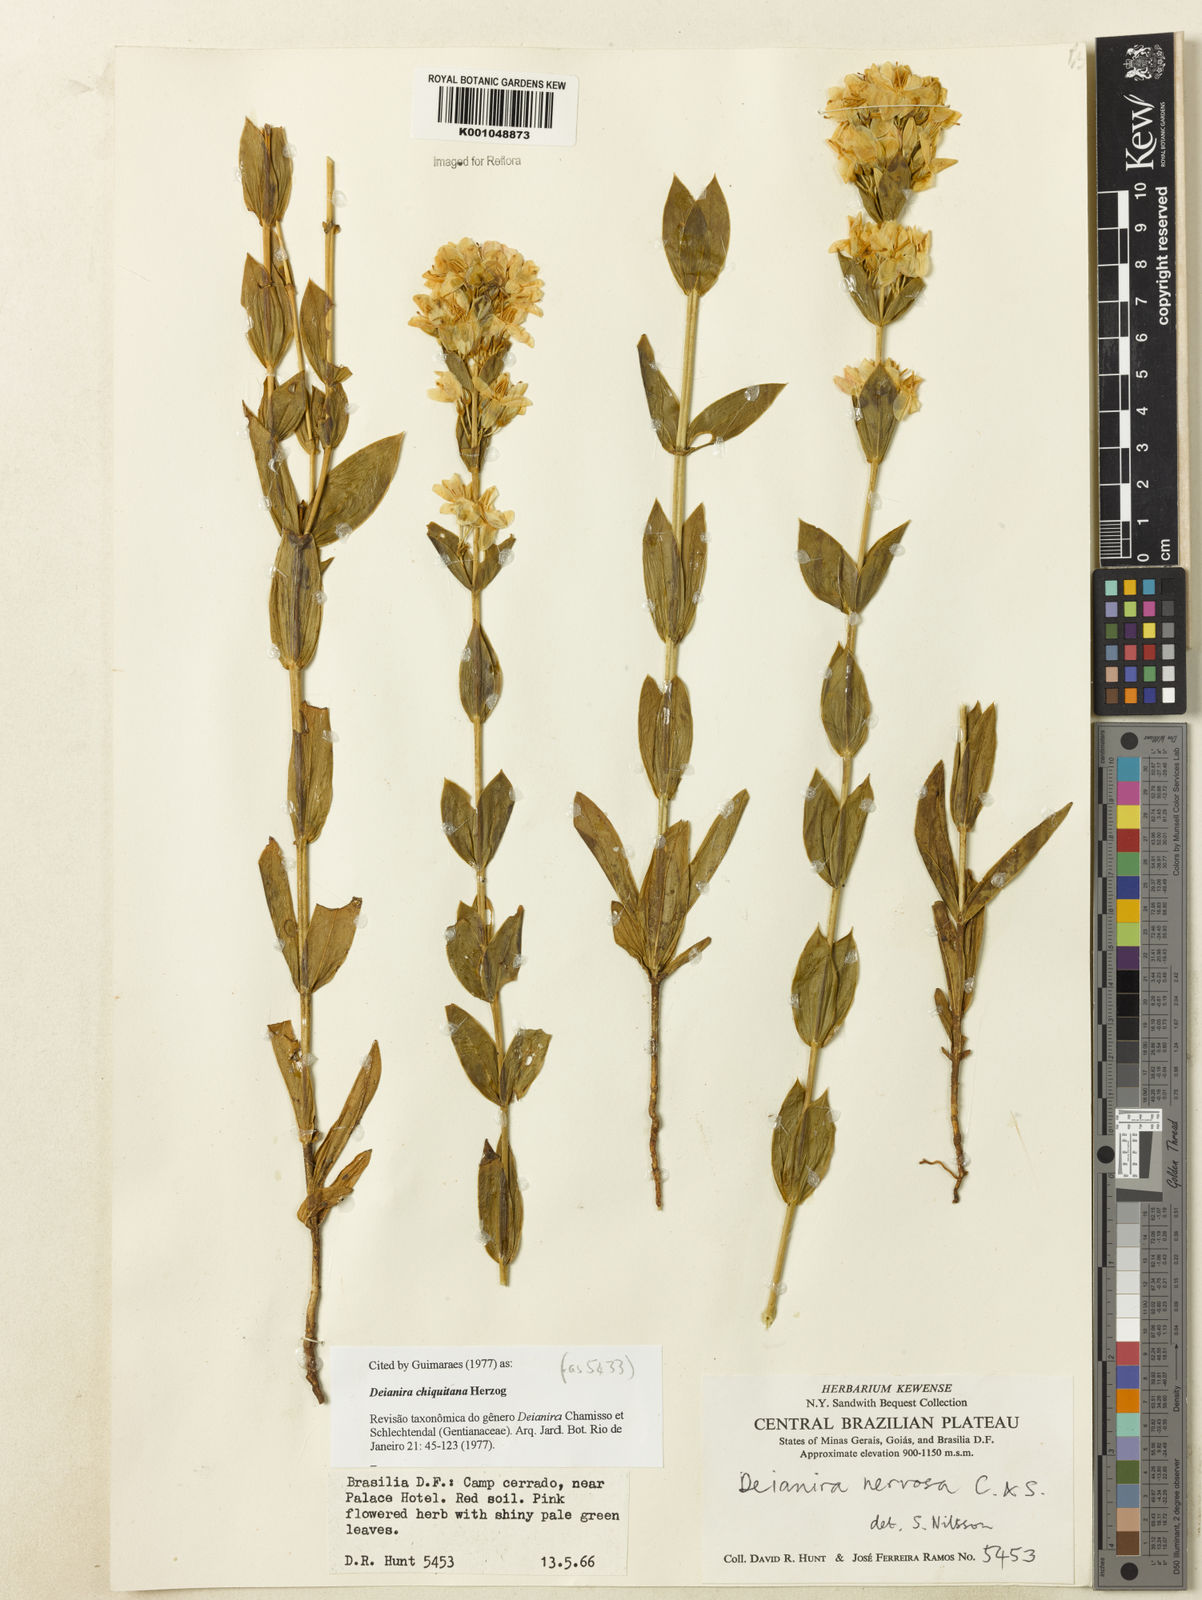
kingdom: Plantae
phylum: Tracheophyta
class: Magnoliopsida
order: Gentianales
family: Gentianaceae
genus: Deianira
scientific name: Deianira chiquitana
